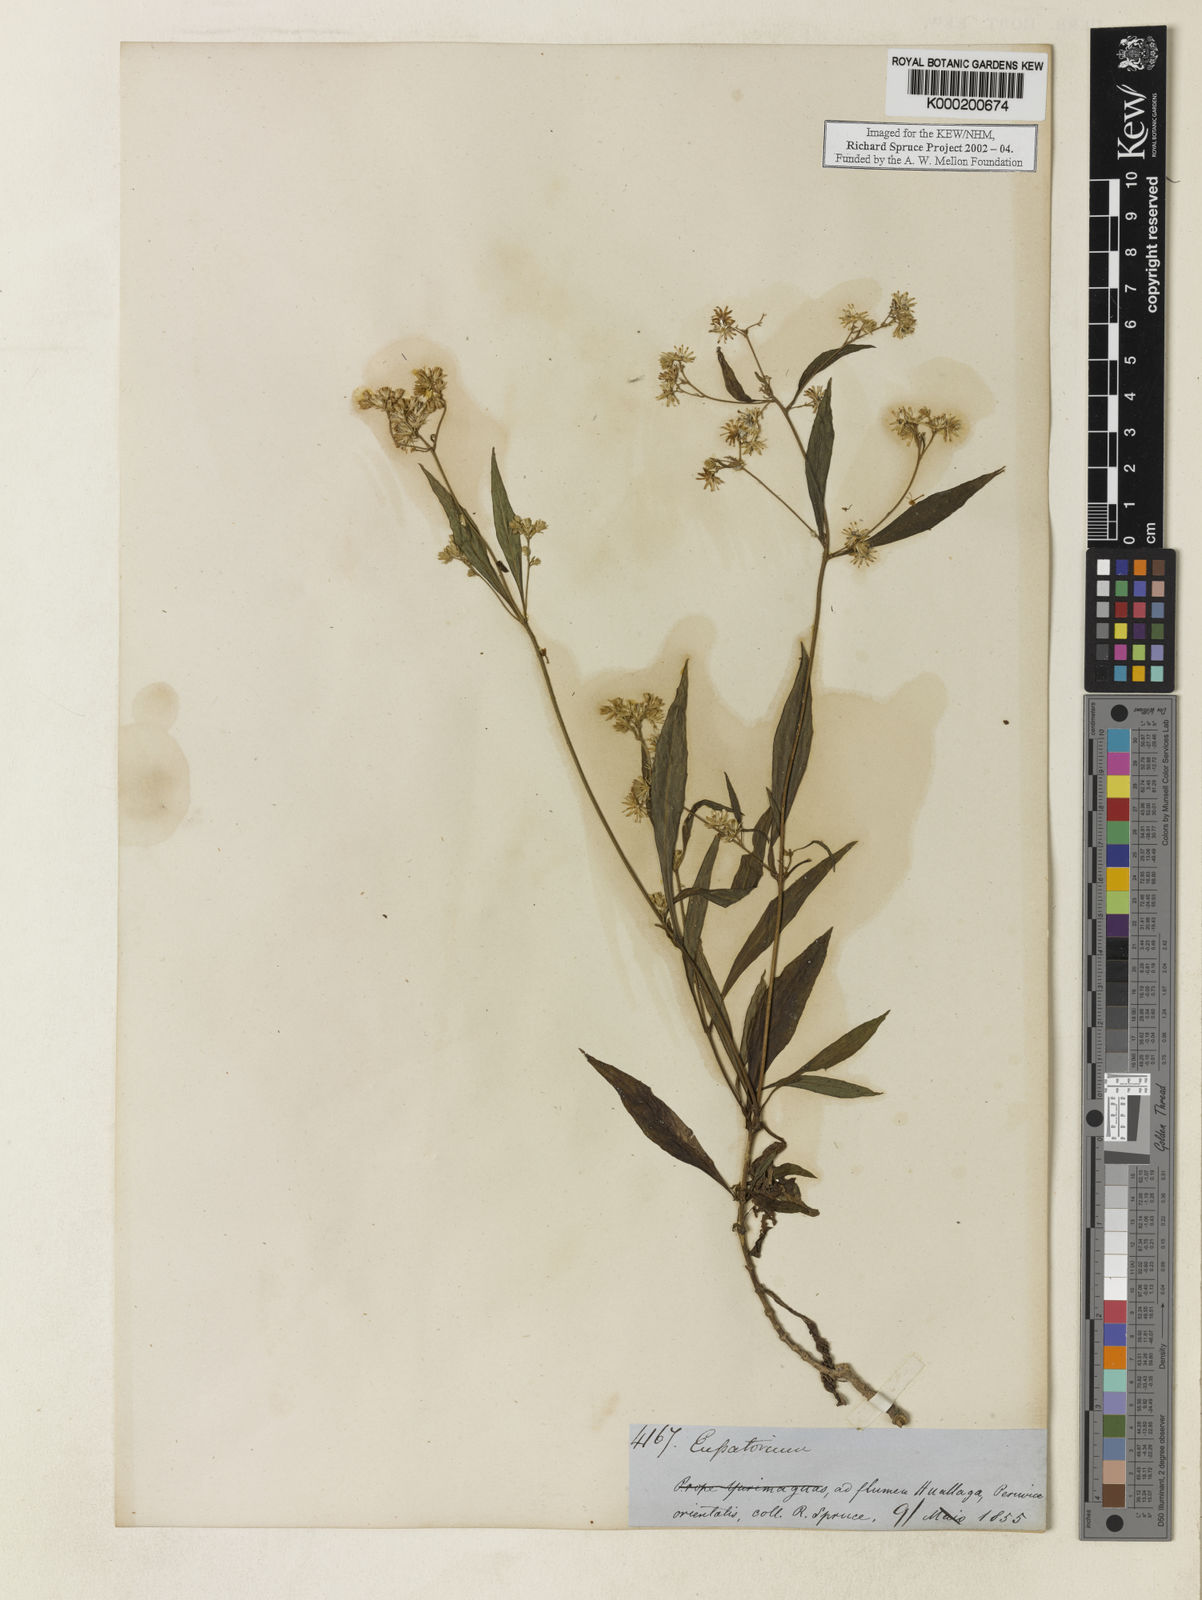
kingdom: Plantae
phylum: Tracheophyta
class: Magnoliopsida
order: Asterales
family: Asteraceae
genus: Fleischmannia
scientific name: Fleischmannia
